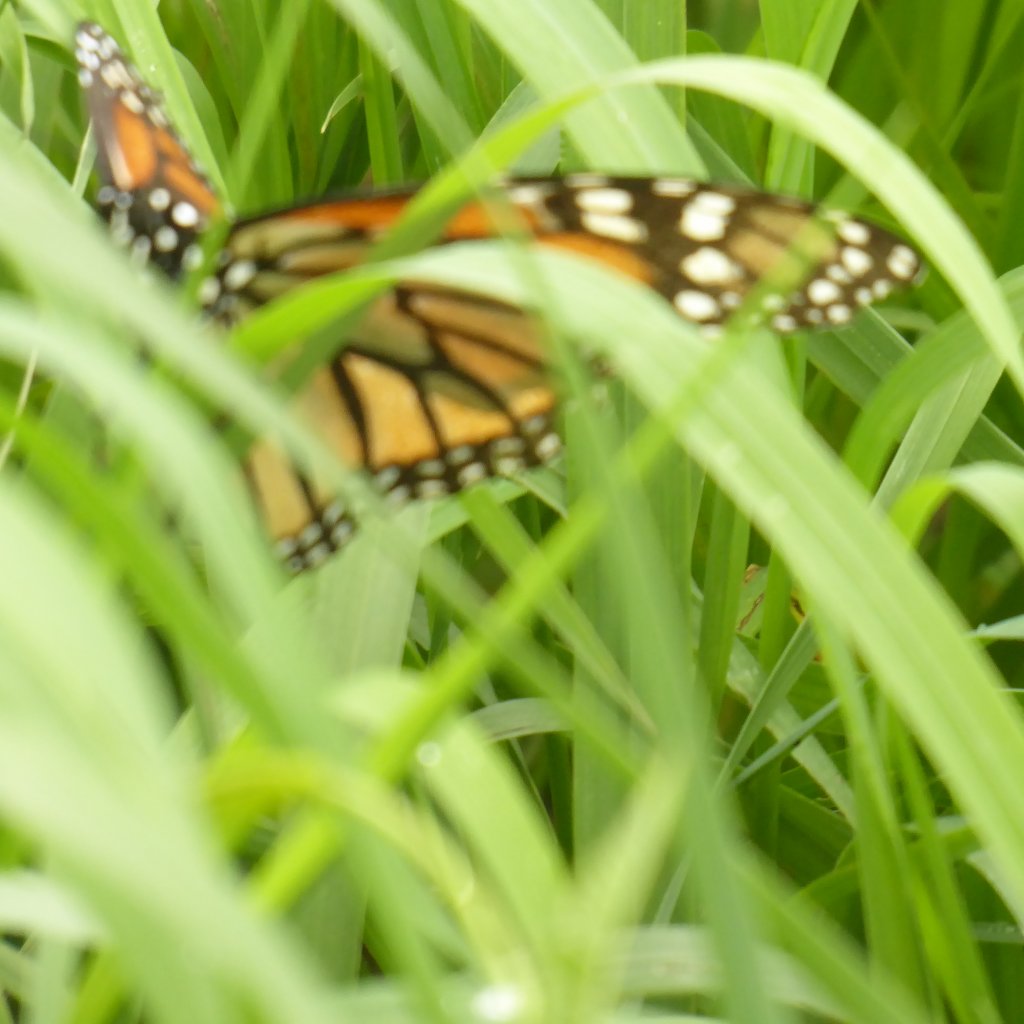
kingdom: Animalia
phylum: Arthropoda
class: Insecta
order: Lepidoptera
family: Nymphalidae
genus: Danaus
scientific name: Danaus plexippus
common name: Monarch
